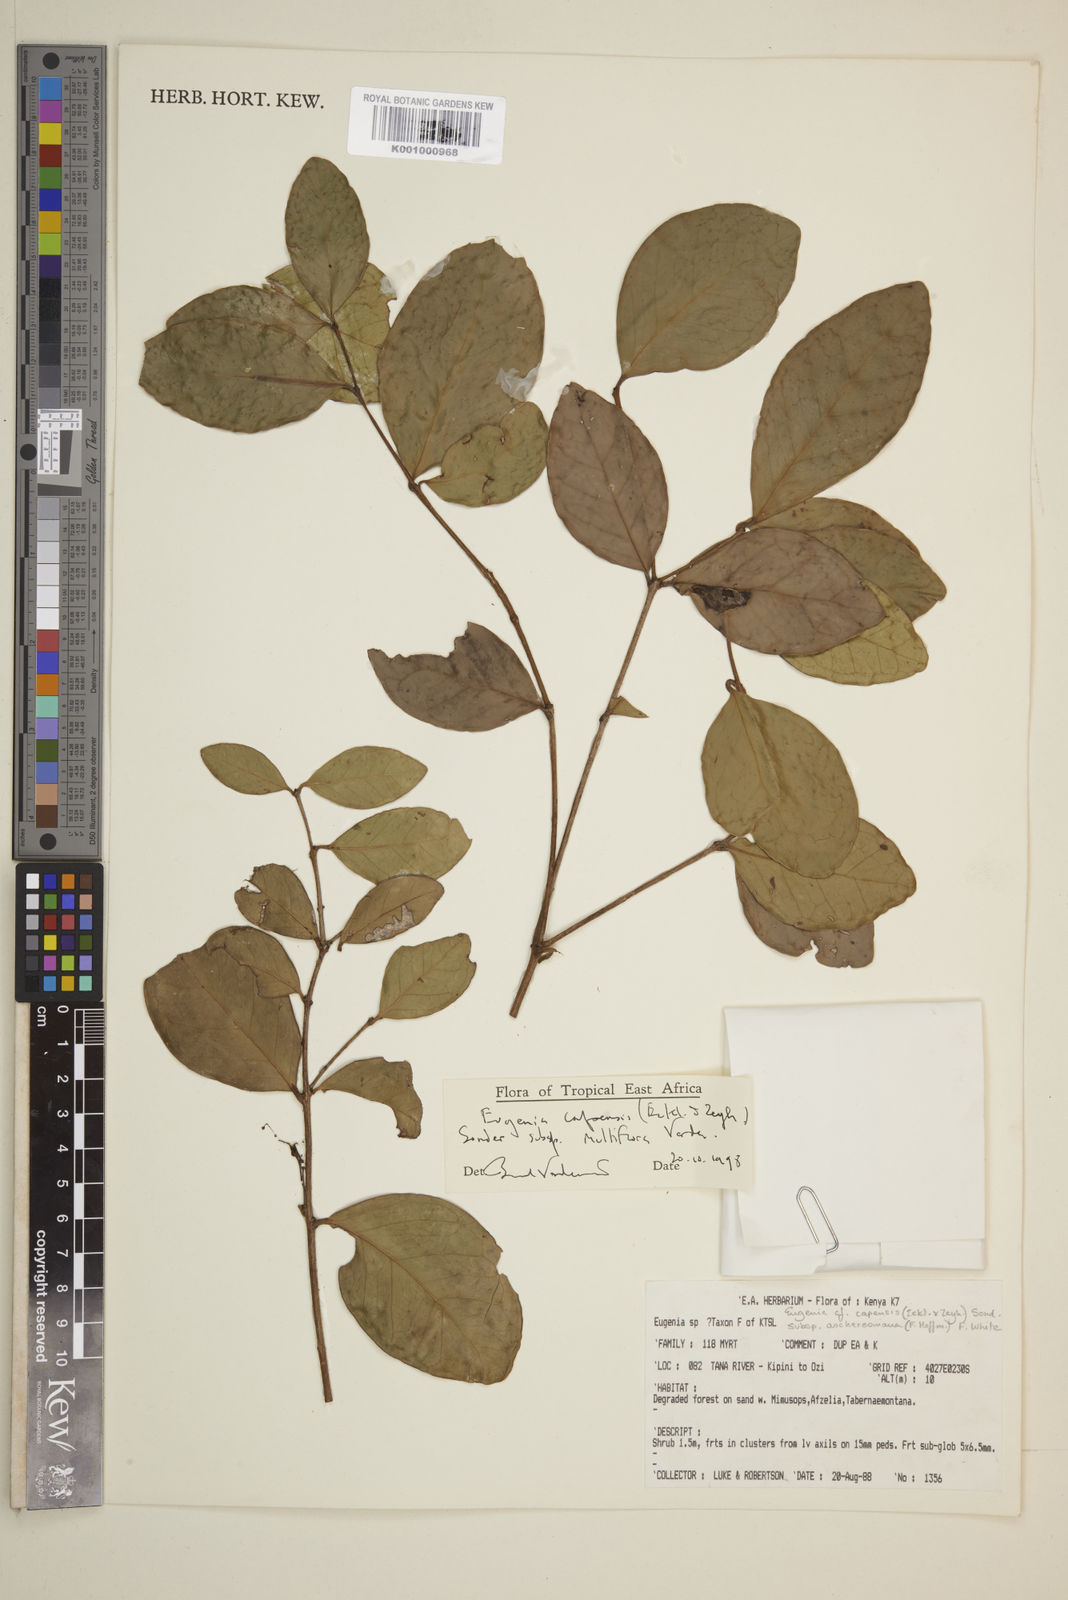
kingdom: Plantae
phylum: Tracheophyta
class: Magnoliopsida
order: Myrtales
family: Myrtaceae
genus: Eugenia
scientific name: Eugenia capensis
